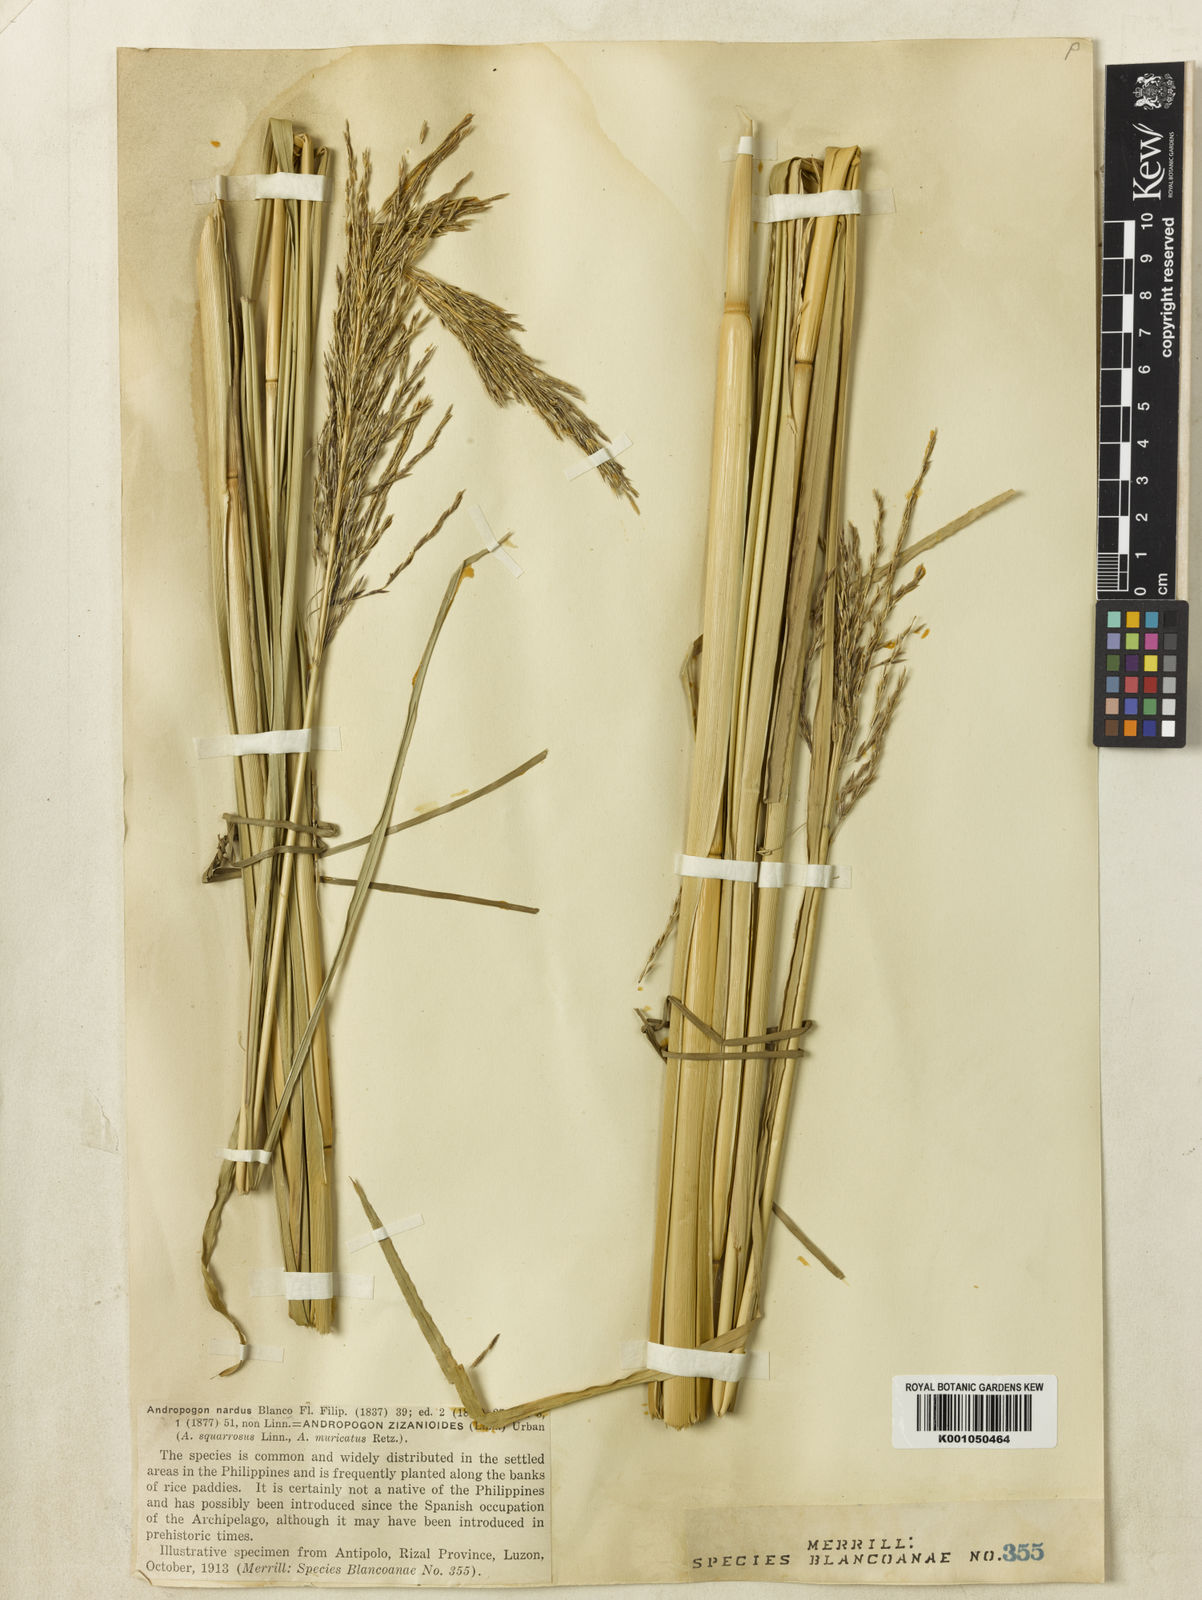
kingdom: Plantae
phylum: Tracheophyta
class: Liliopsida
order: Poales
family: Poaceae
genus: Chrysopogon
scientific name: Chrysopogon zizanioides
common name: False beardgrass
